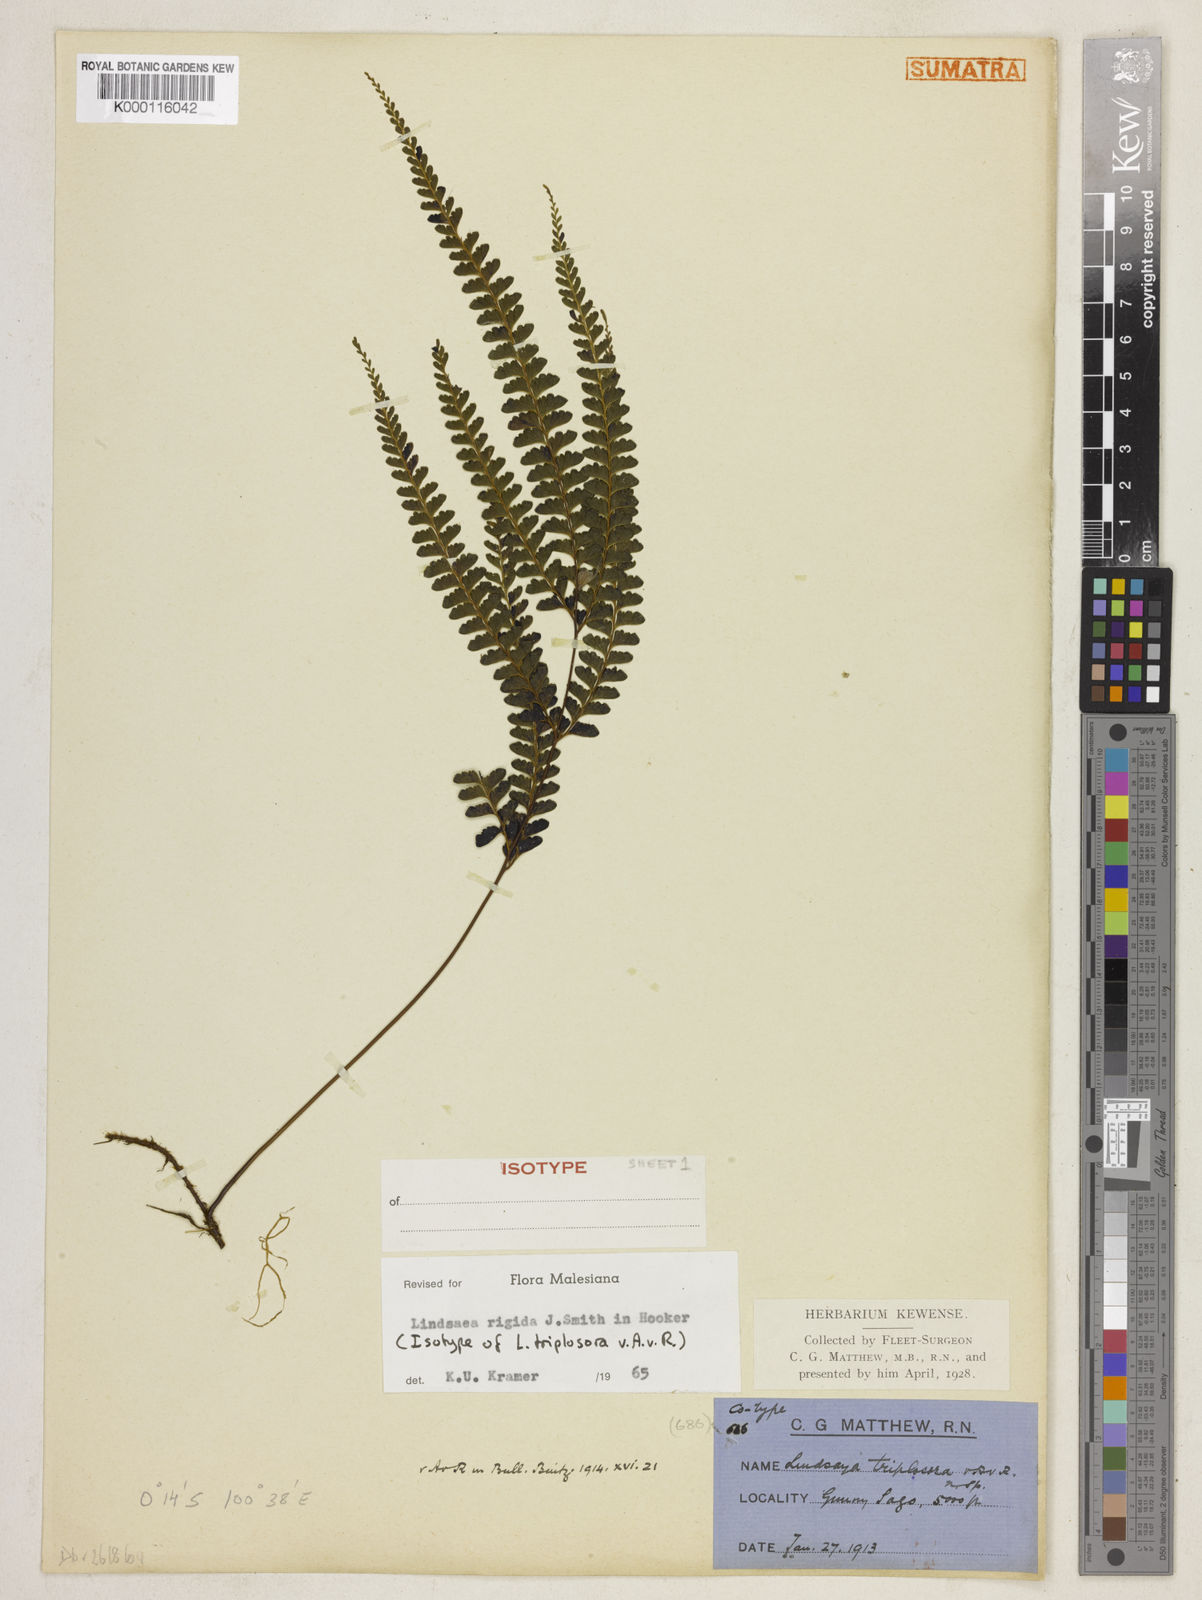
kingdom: Plantae
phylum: Tracheophyta
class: Polypodiopsida
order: Polypodiales
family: Lindsaeaceae
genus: Lindsaea
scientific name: Lindsaea rigida
